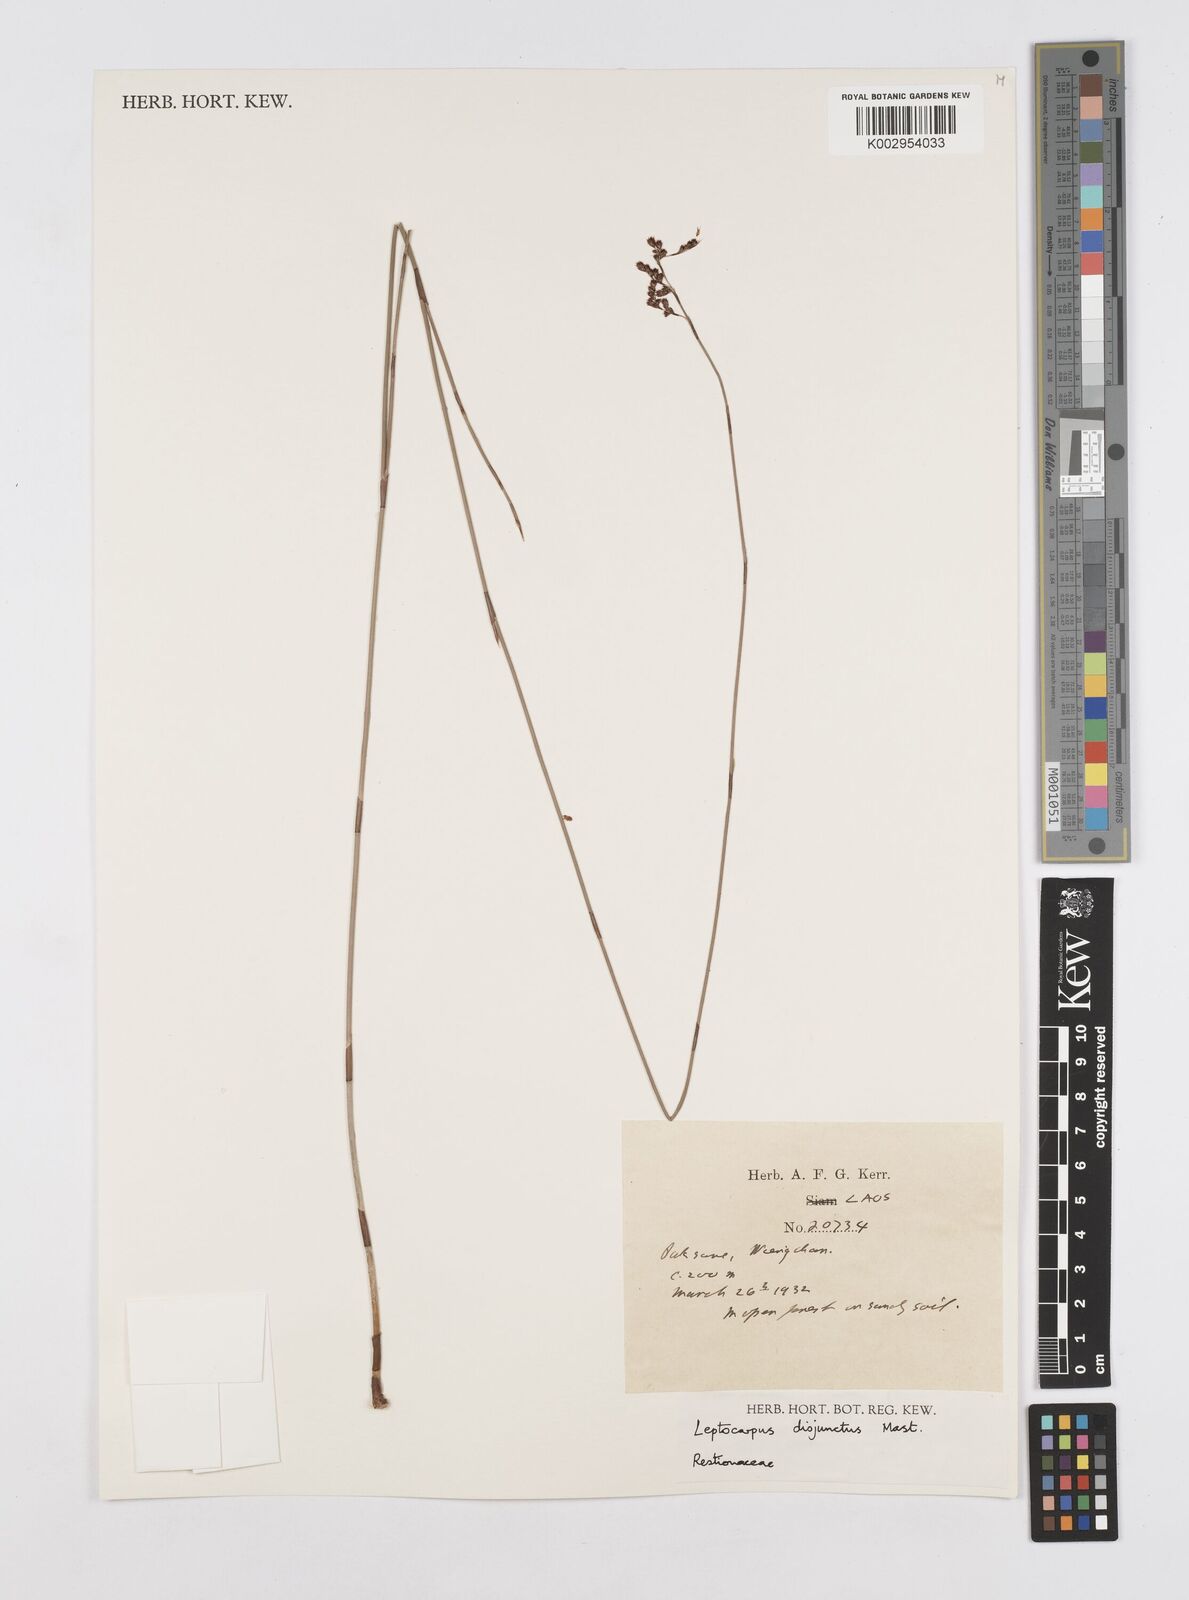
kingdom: Plantae
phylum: Tracheophyta
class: Liliopsida
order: Poales
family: Restionaceae
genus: Dapsilanthus
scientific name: Dapsilanthus disjunctus
